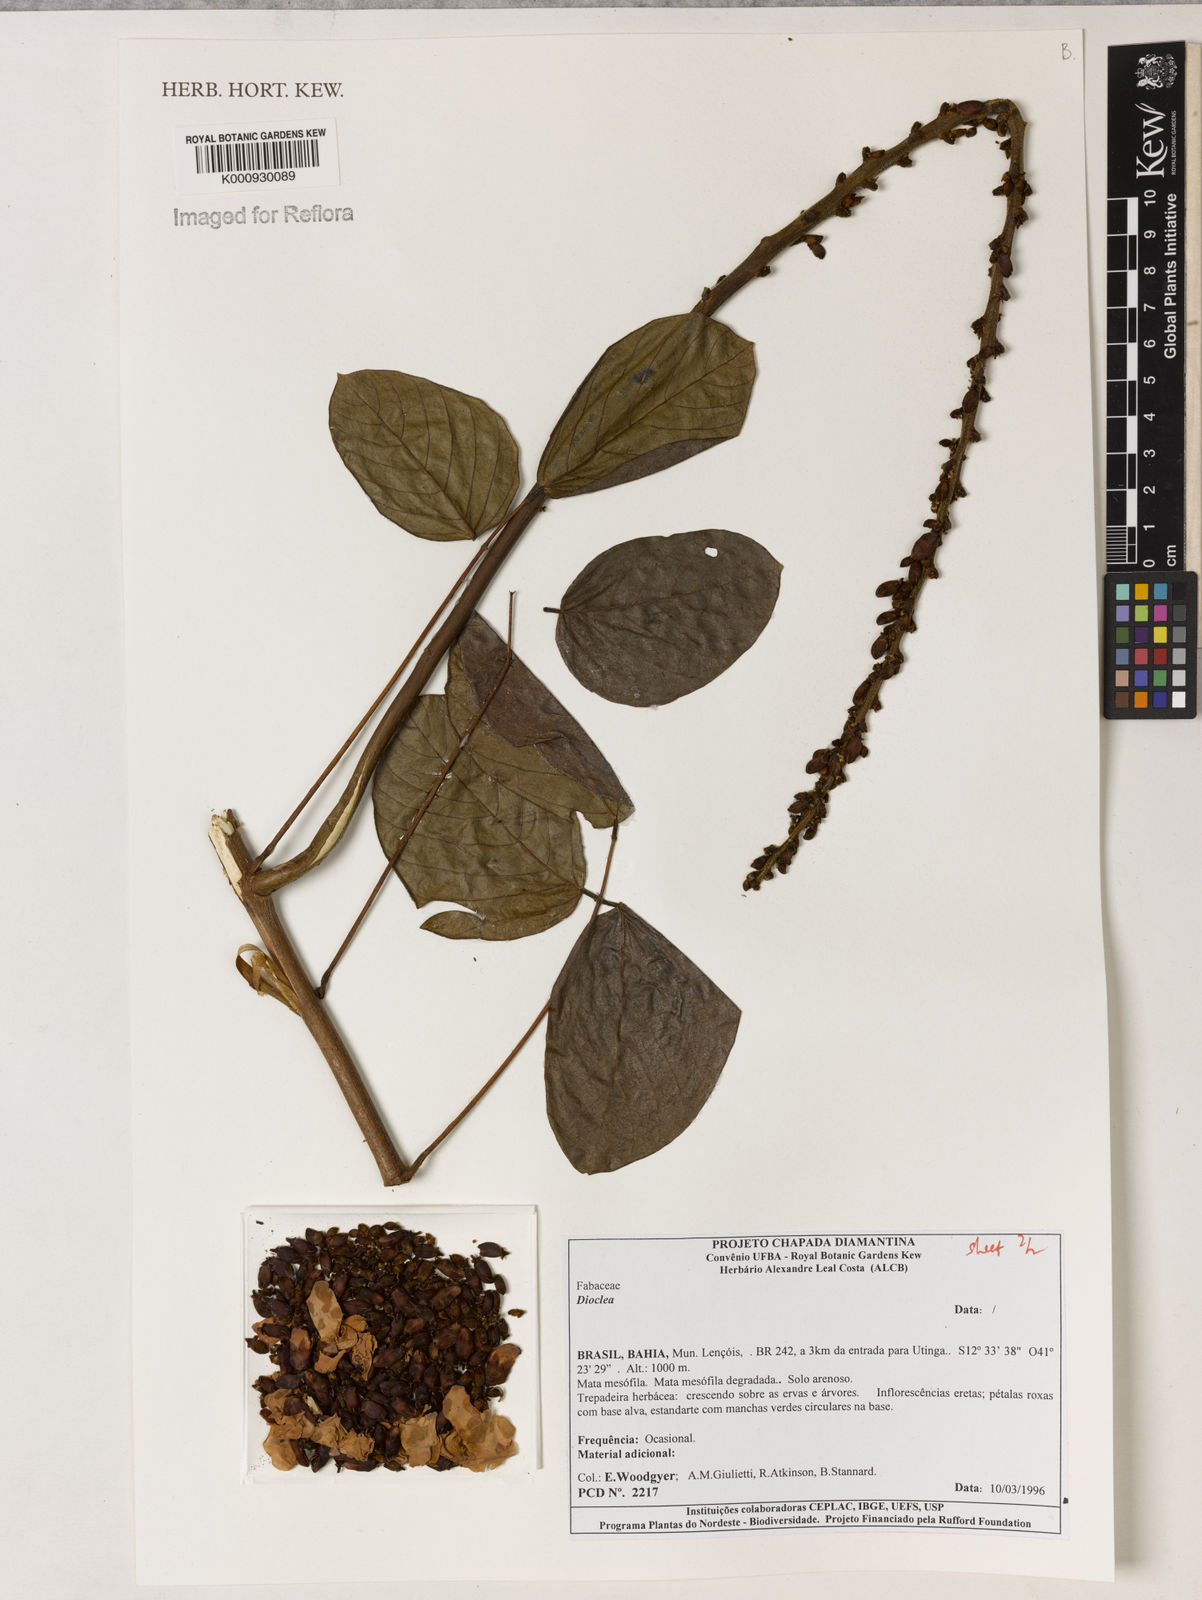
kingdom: Plantae
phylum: Tracheophyta
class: Magnoliopsida
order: Fabales
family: Fabaceae
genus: Dioclea
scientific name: Dioclea
